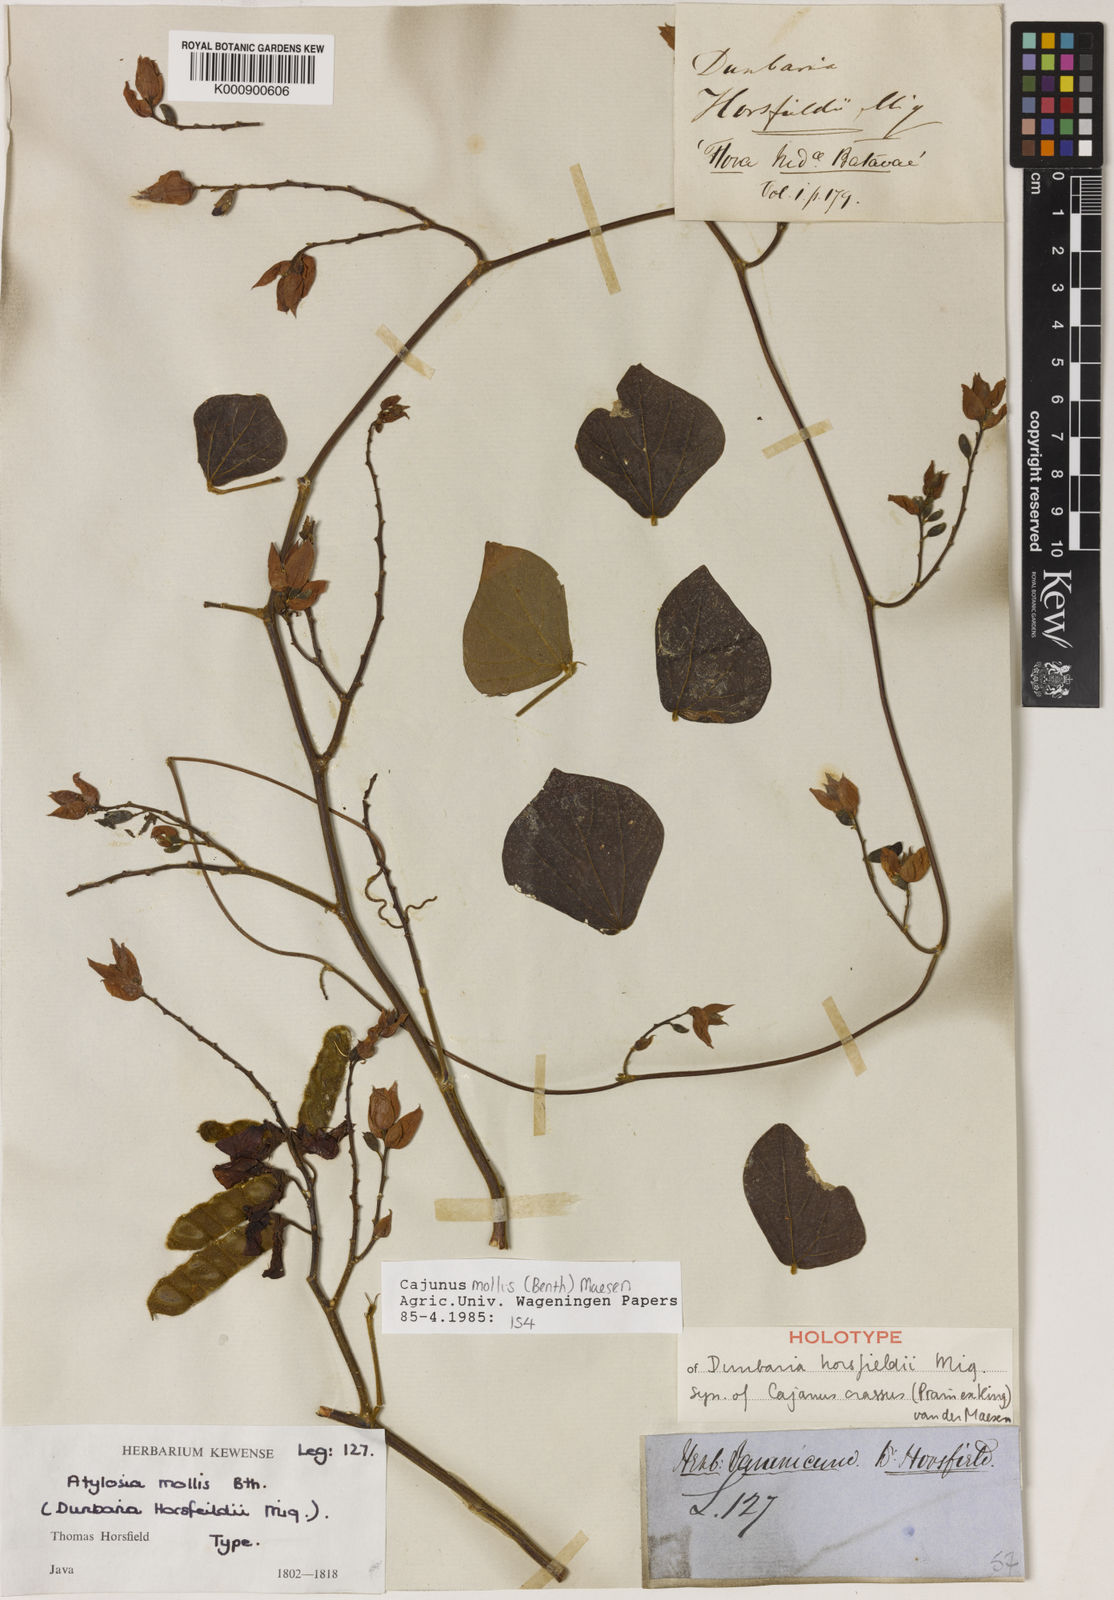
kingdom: Plantae
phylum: Tracheophyta
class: Magnoliopsida
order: Fabales
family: Fabaceae
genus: Cajanus
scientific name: Cajanus mollis
